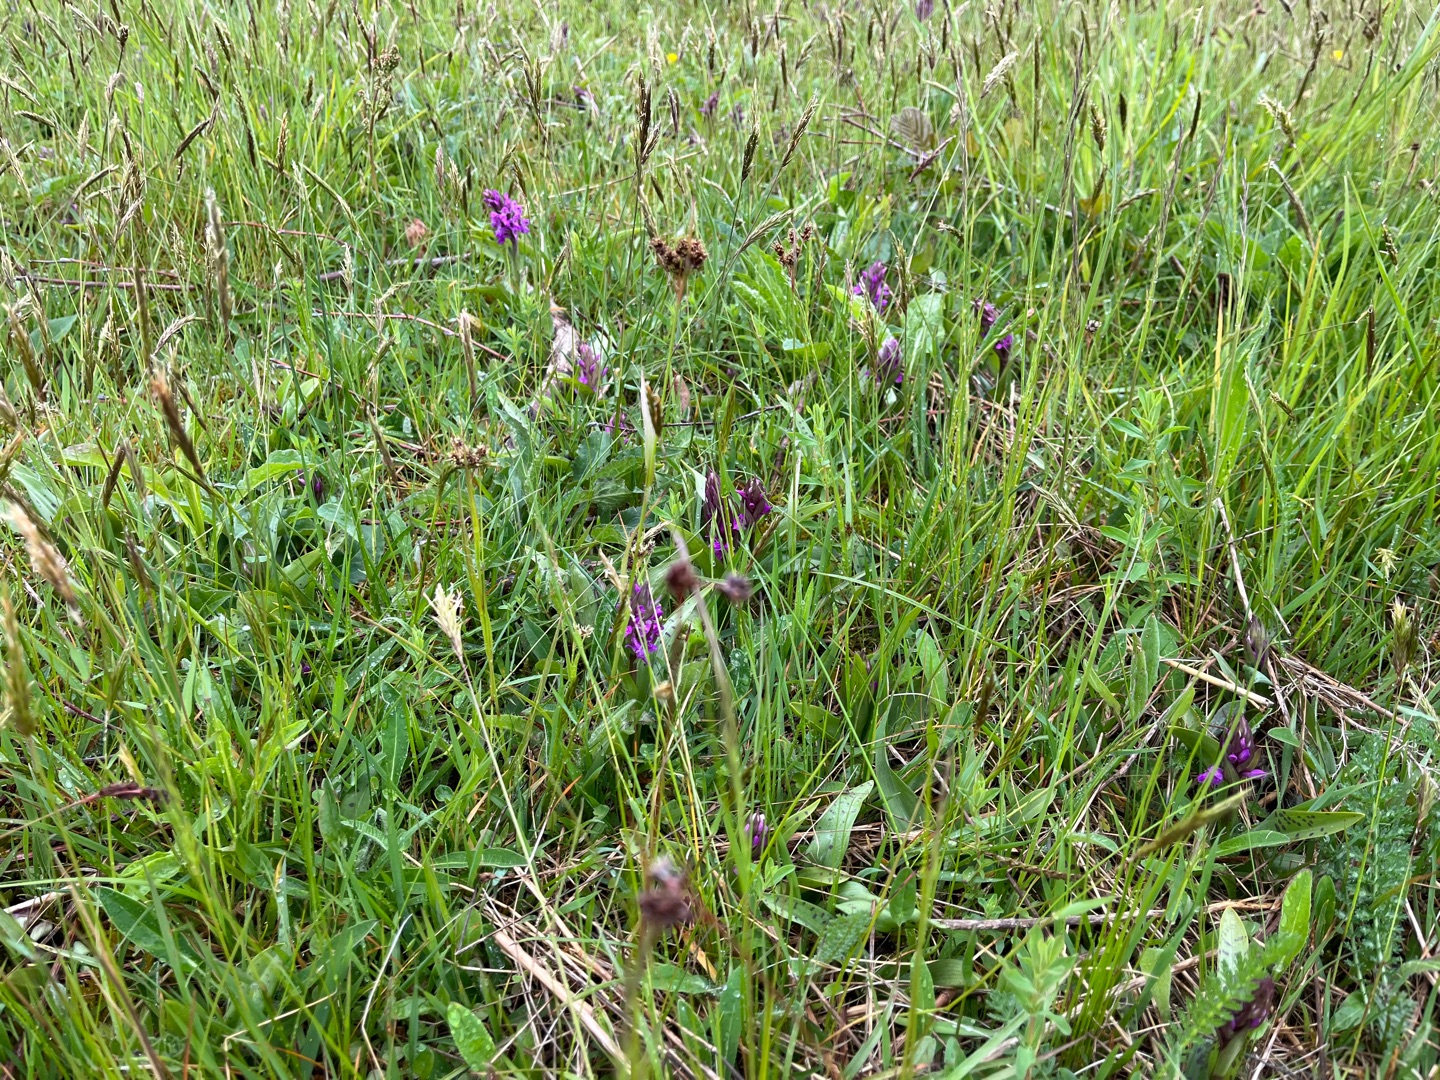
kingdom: Plantae
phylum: Tracheophyta
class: Liliopsida
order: Asparagales
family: Orchidaceae
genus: Dactylorhiza
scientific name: Dactylorhiza majalis
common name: Maj-gøgeurt
